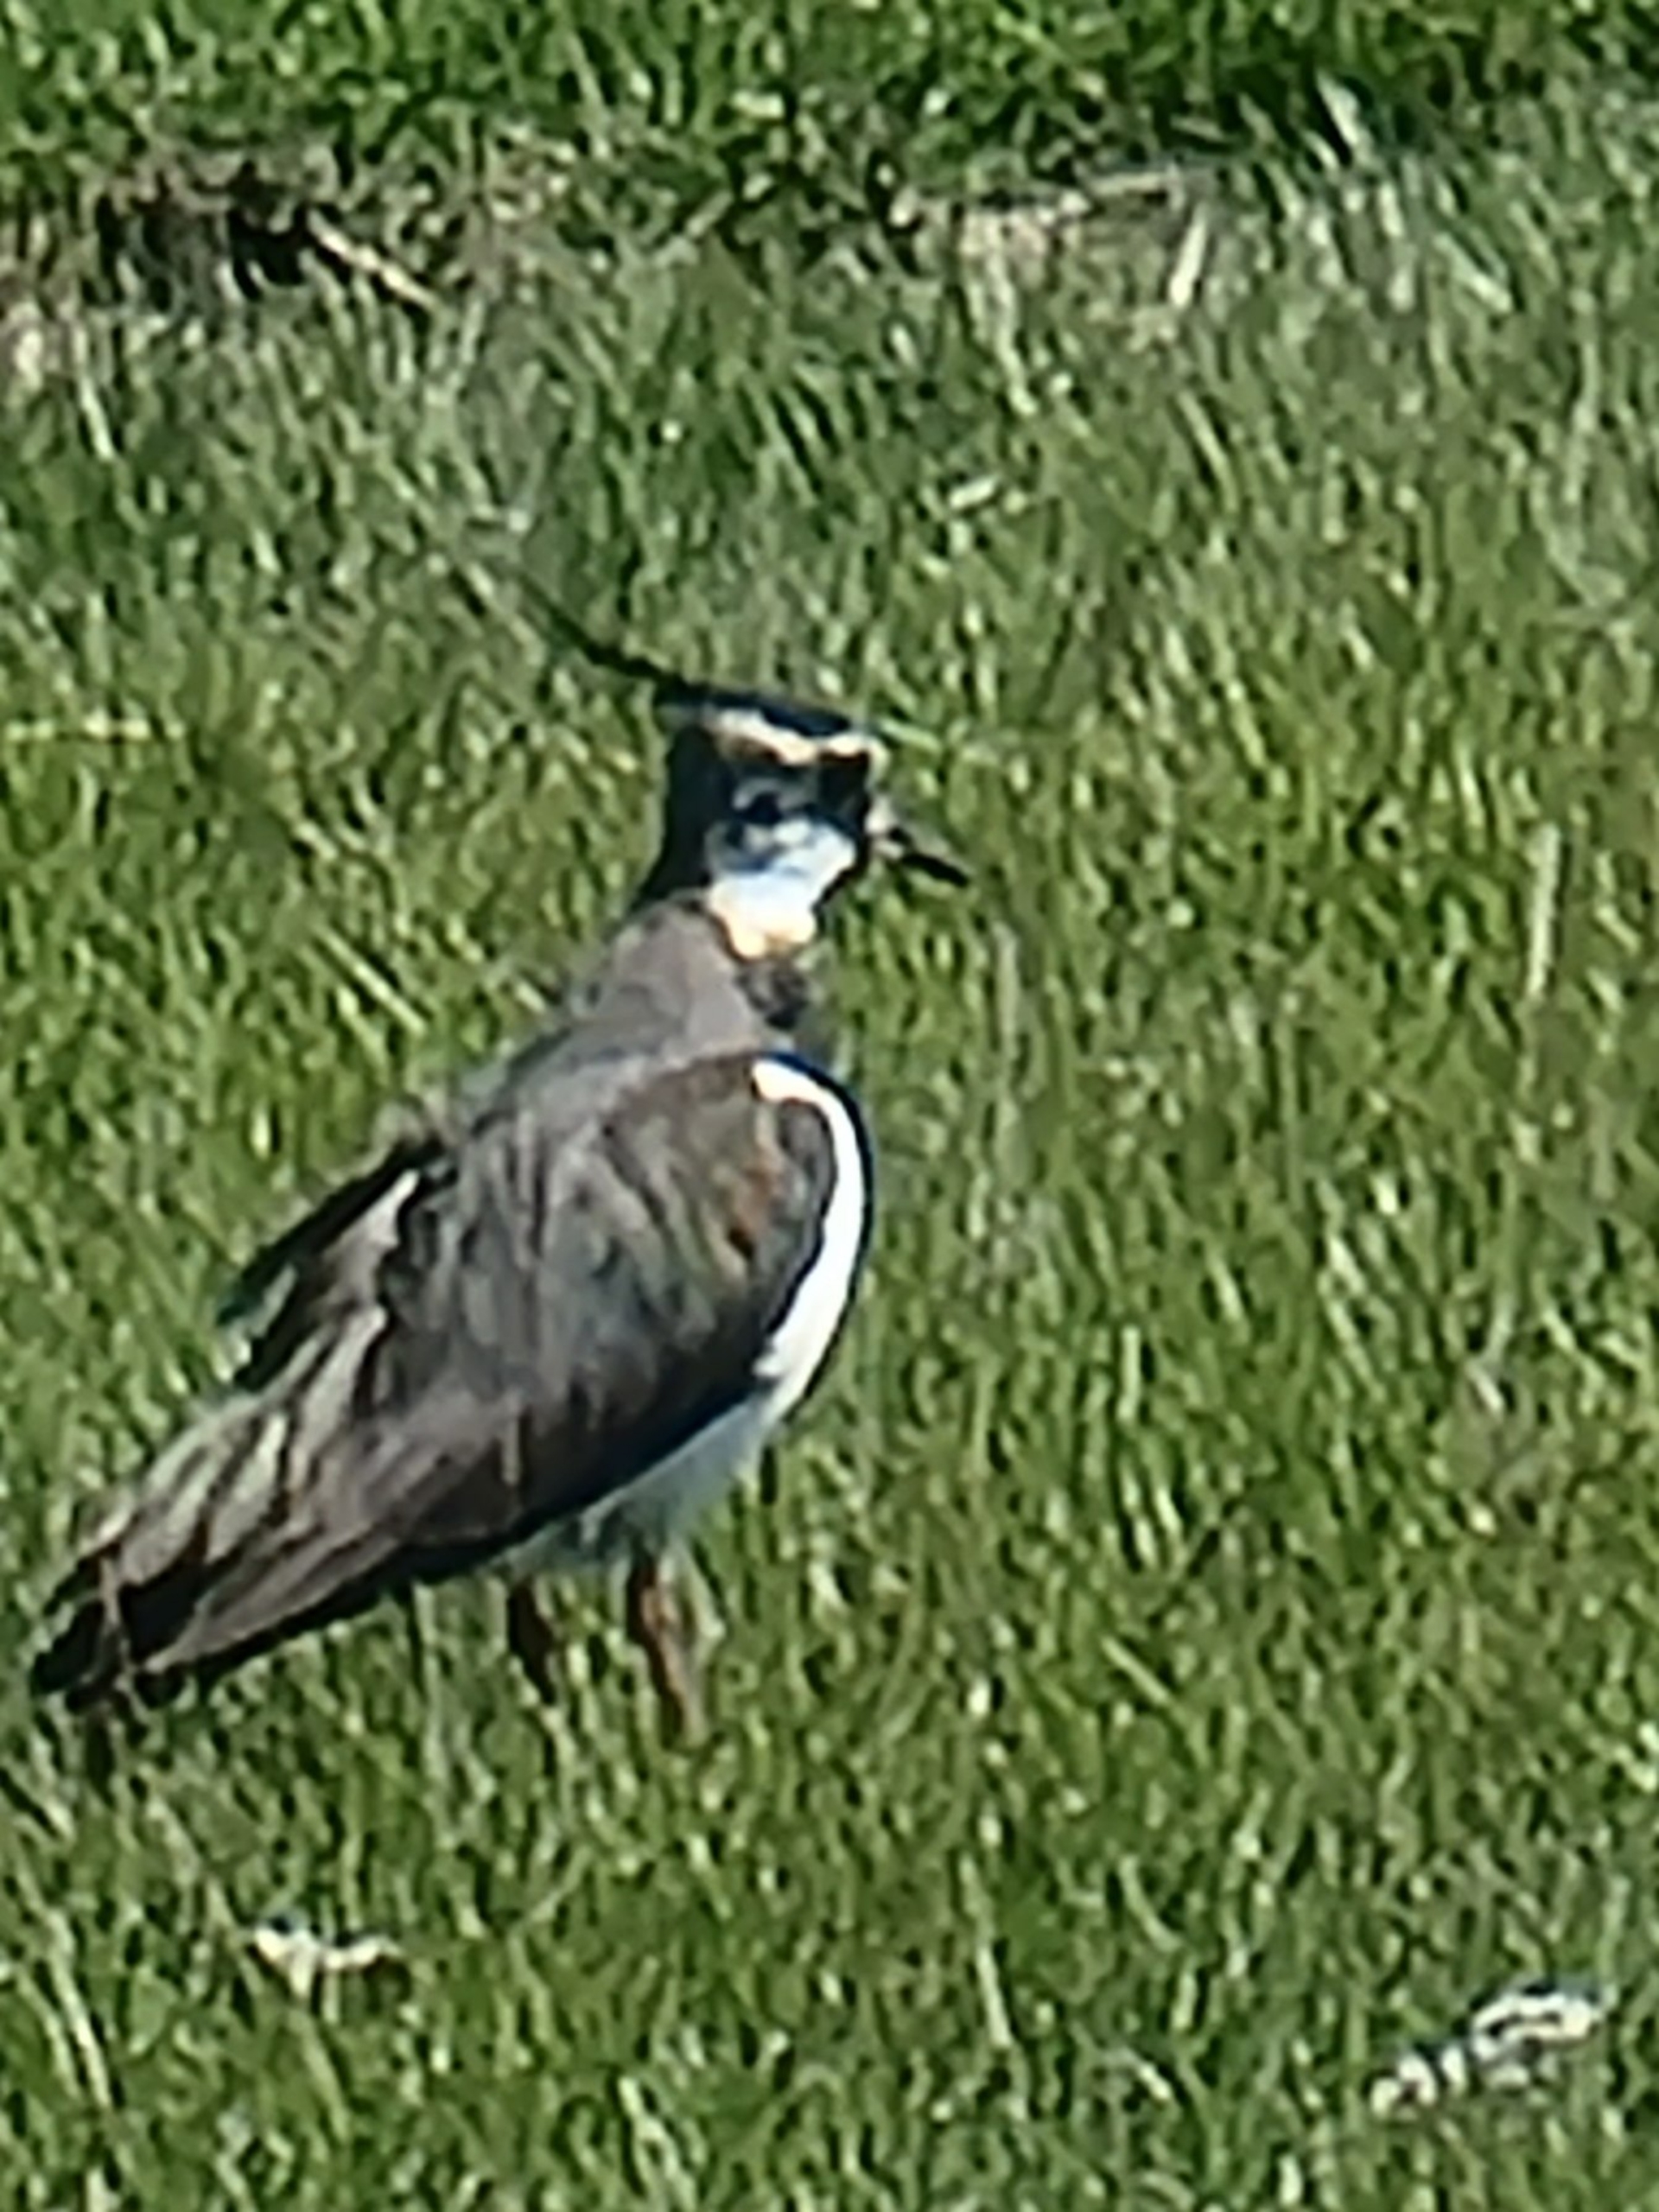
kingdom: Animalia
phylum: Chordata
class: Aves
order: Charadriiformes
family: Charadriidae
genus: Vanellus
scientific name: Vanellus vanellus
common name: Vibe
